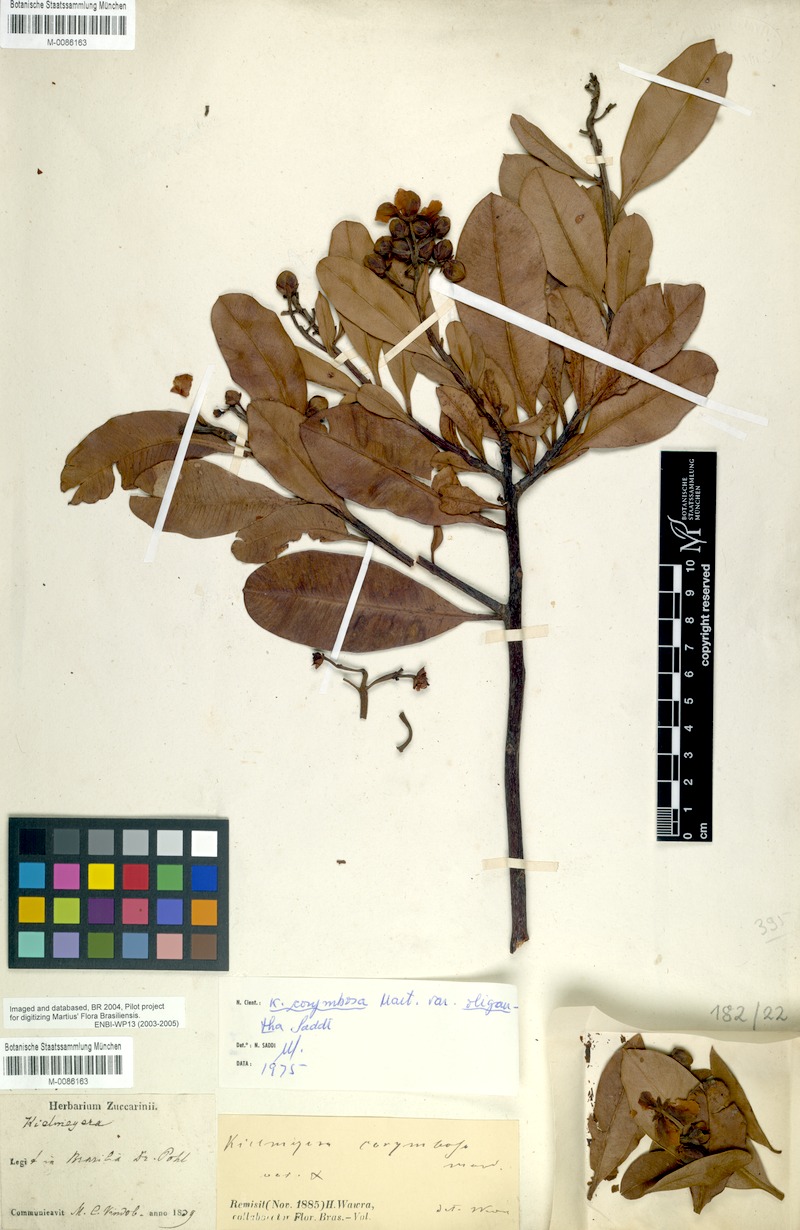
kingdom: Plantae
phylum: Tracheophyta
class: Magnoliopsida
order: Malpighiales
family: Calophyllaceae
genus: Kielmeyera
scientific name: Kielmeyera corymbosa
